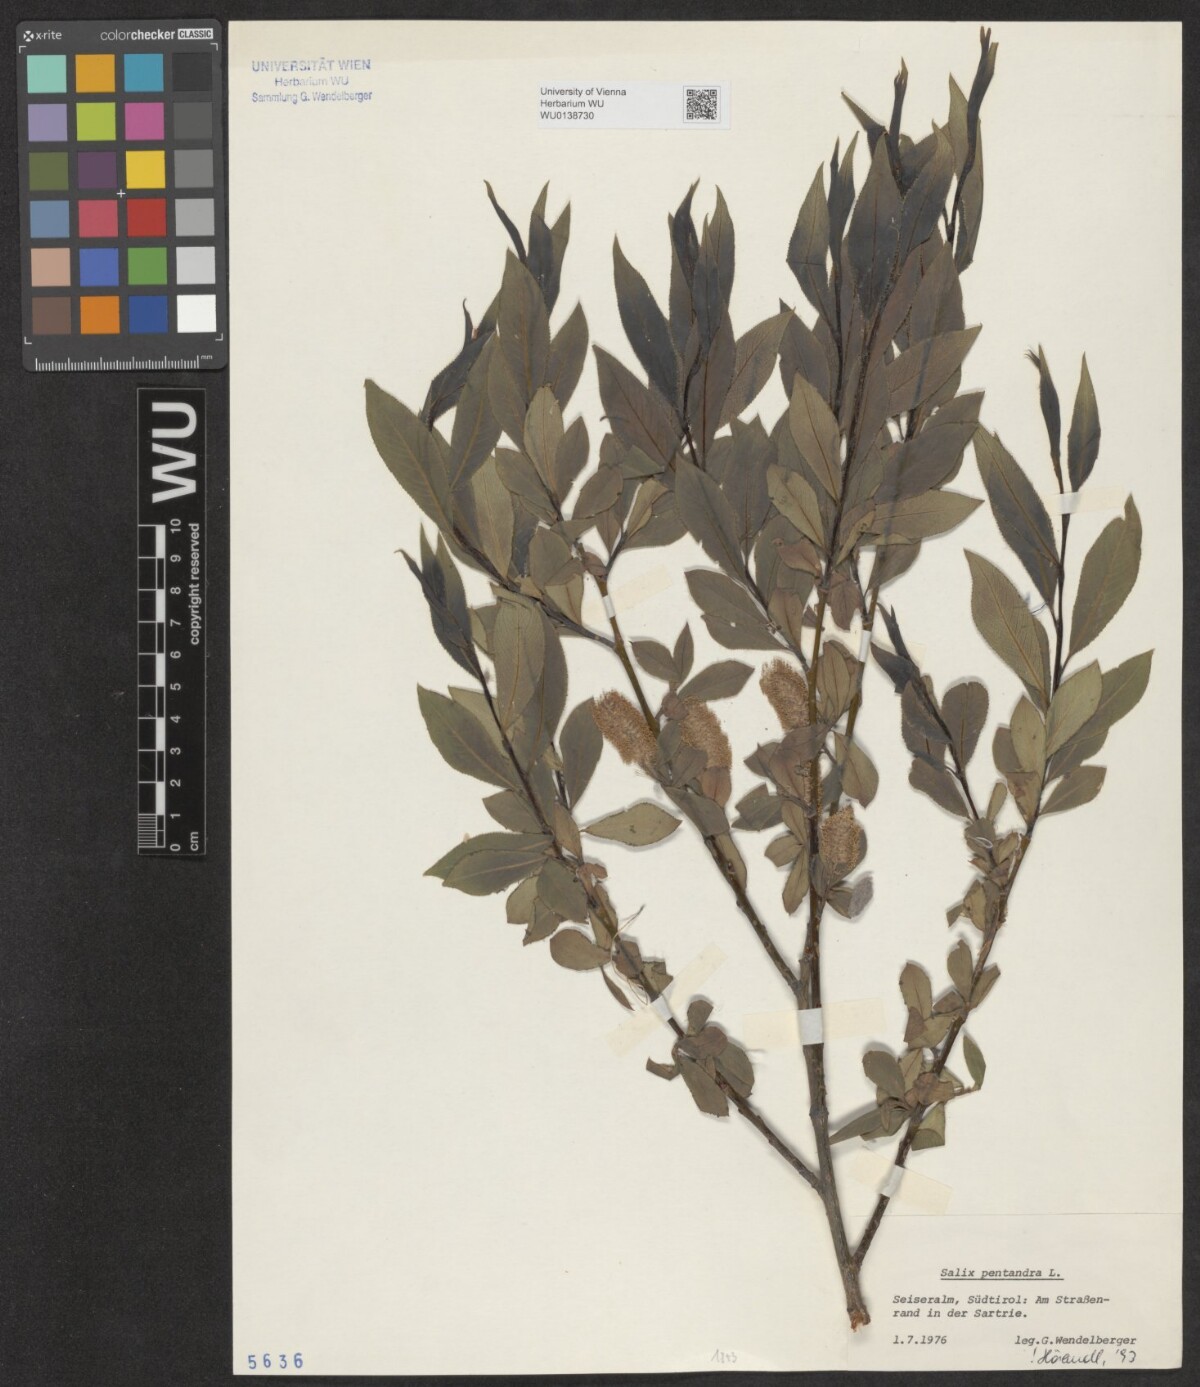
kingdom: Plantae
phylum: Tracheophyta
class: Magnoliopsida
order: Malpighiales
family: Salicaceae
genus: Salix
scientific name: Salix pentandra
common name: Bay willow
